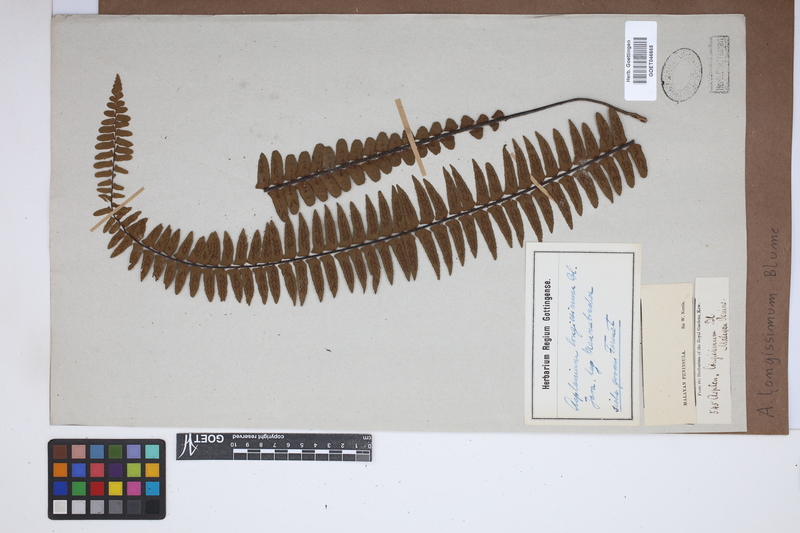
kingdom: Plantae
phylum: Tracheophyta
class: Polypodiopsida
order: Polypodiales
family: Aspleniaceae
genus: Asplenium
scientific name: Asplenium longissimum
